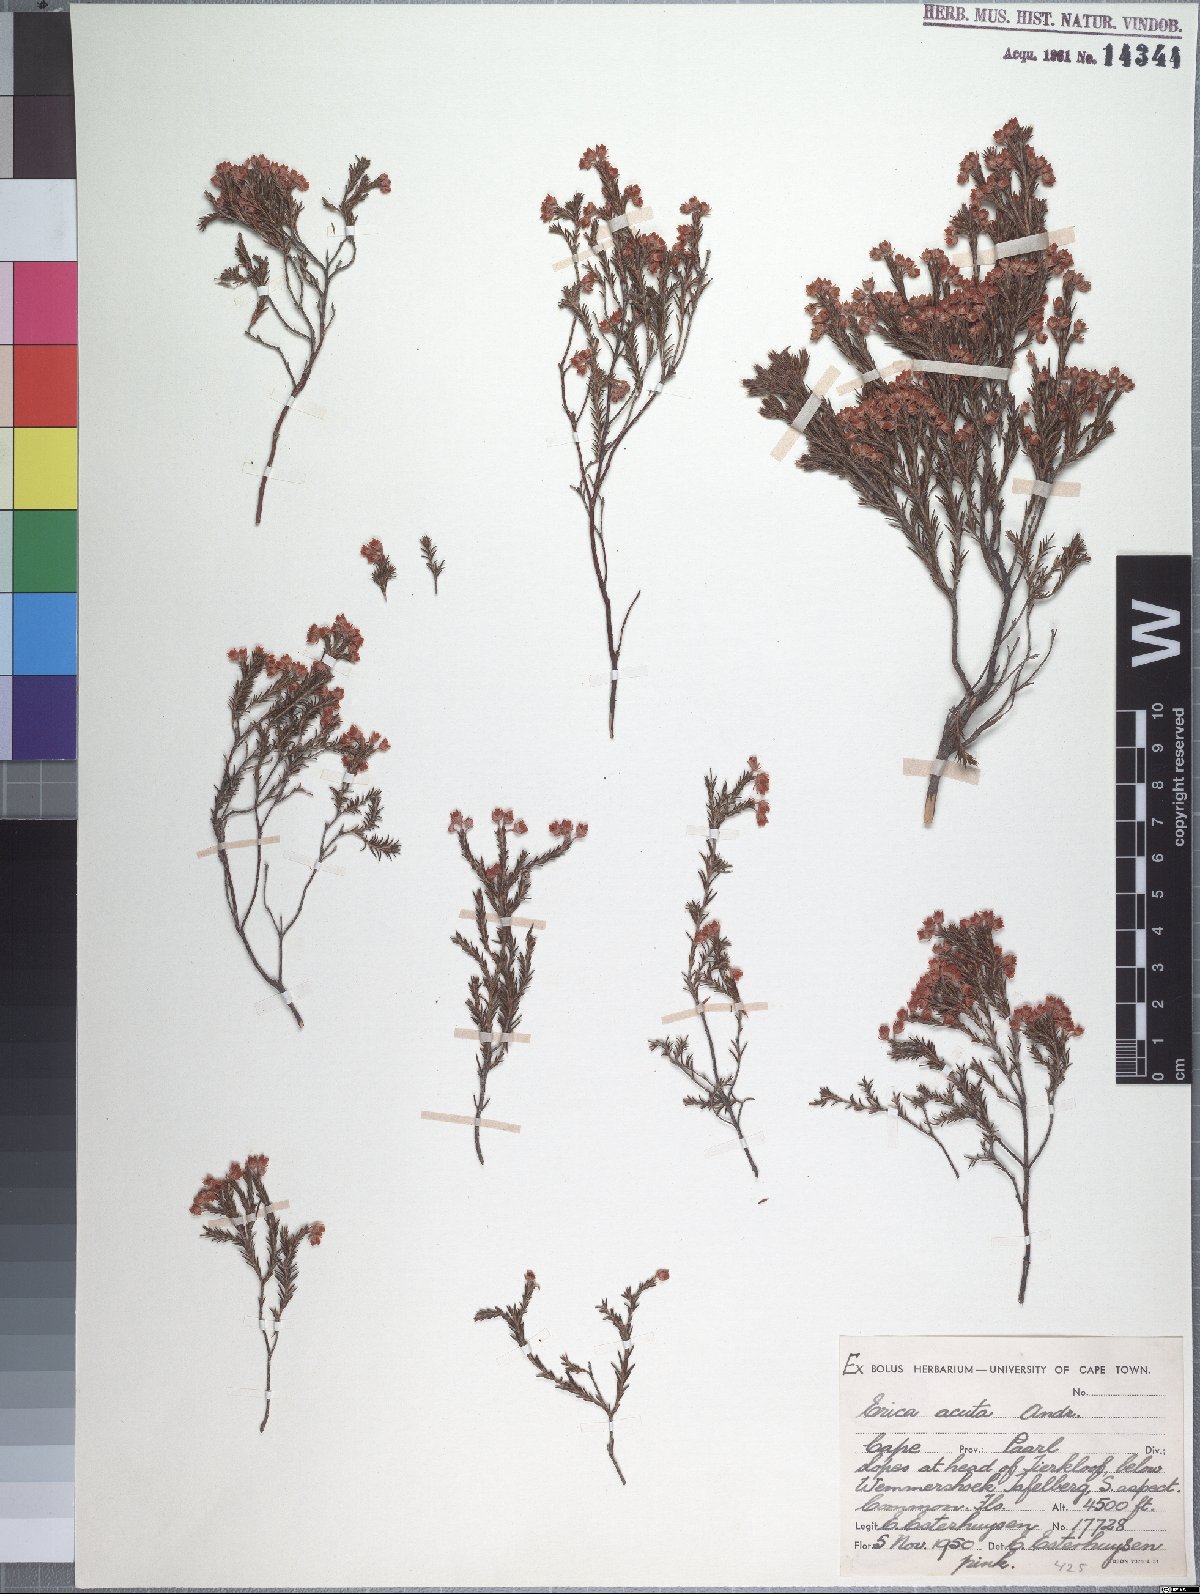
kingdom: Plantae
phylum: Tracheophyta
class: Magnoliopsida
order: Ericales
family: Ericaceae
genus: Erica
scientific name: Erica acuta
